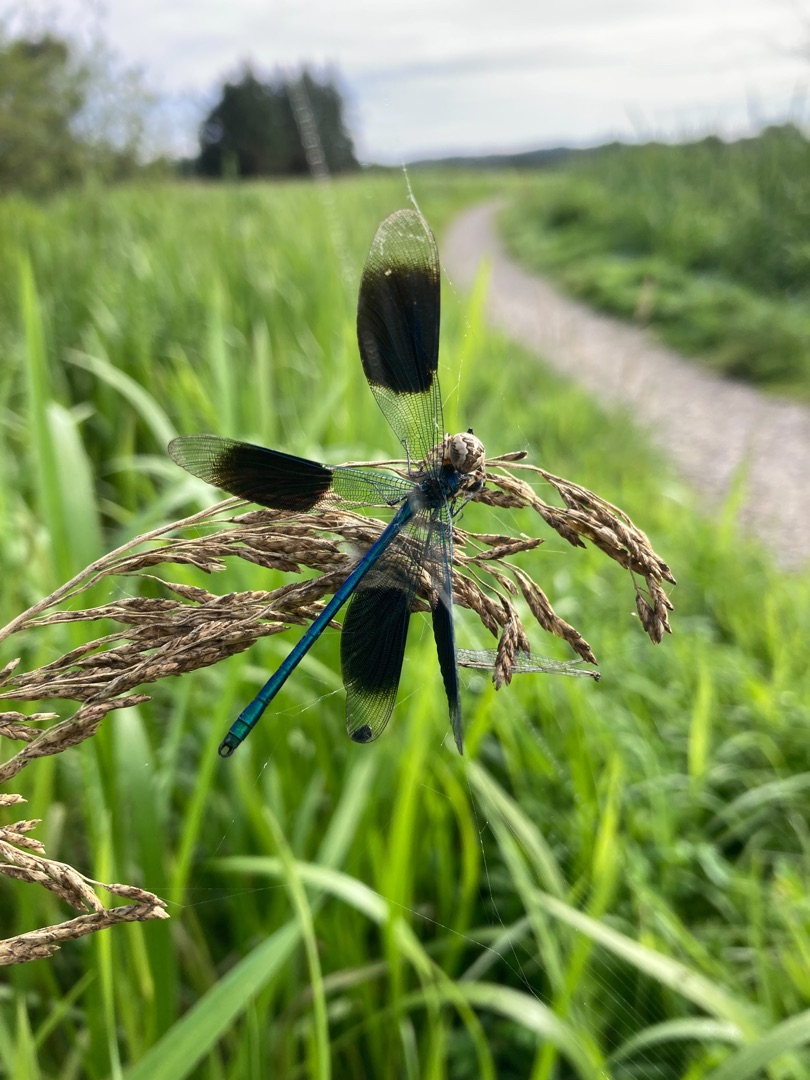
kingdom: Animalia
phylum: Arthropoda
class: Insecta
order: Odonata
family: Calopterygidae
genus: Calopteryx
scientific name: Calopteryx splendens
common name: Blåbåndet pragtvandnymfe
